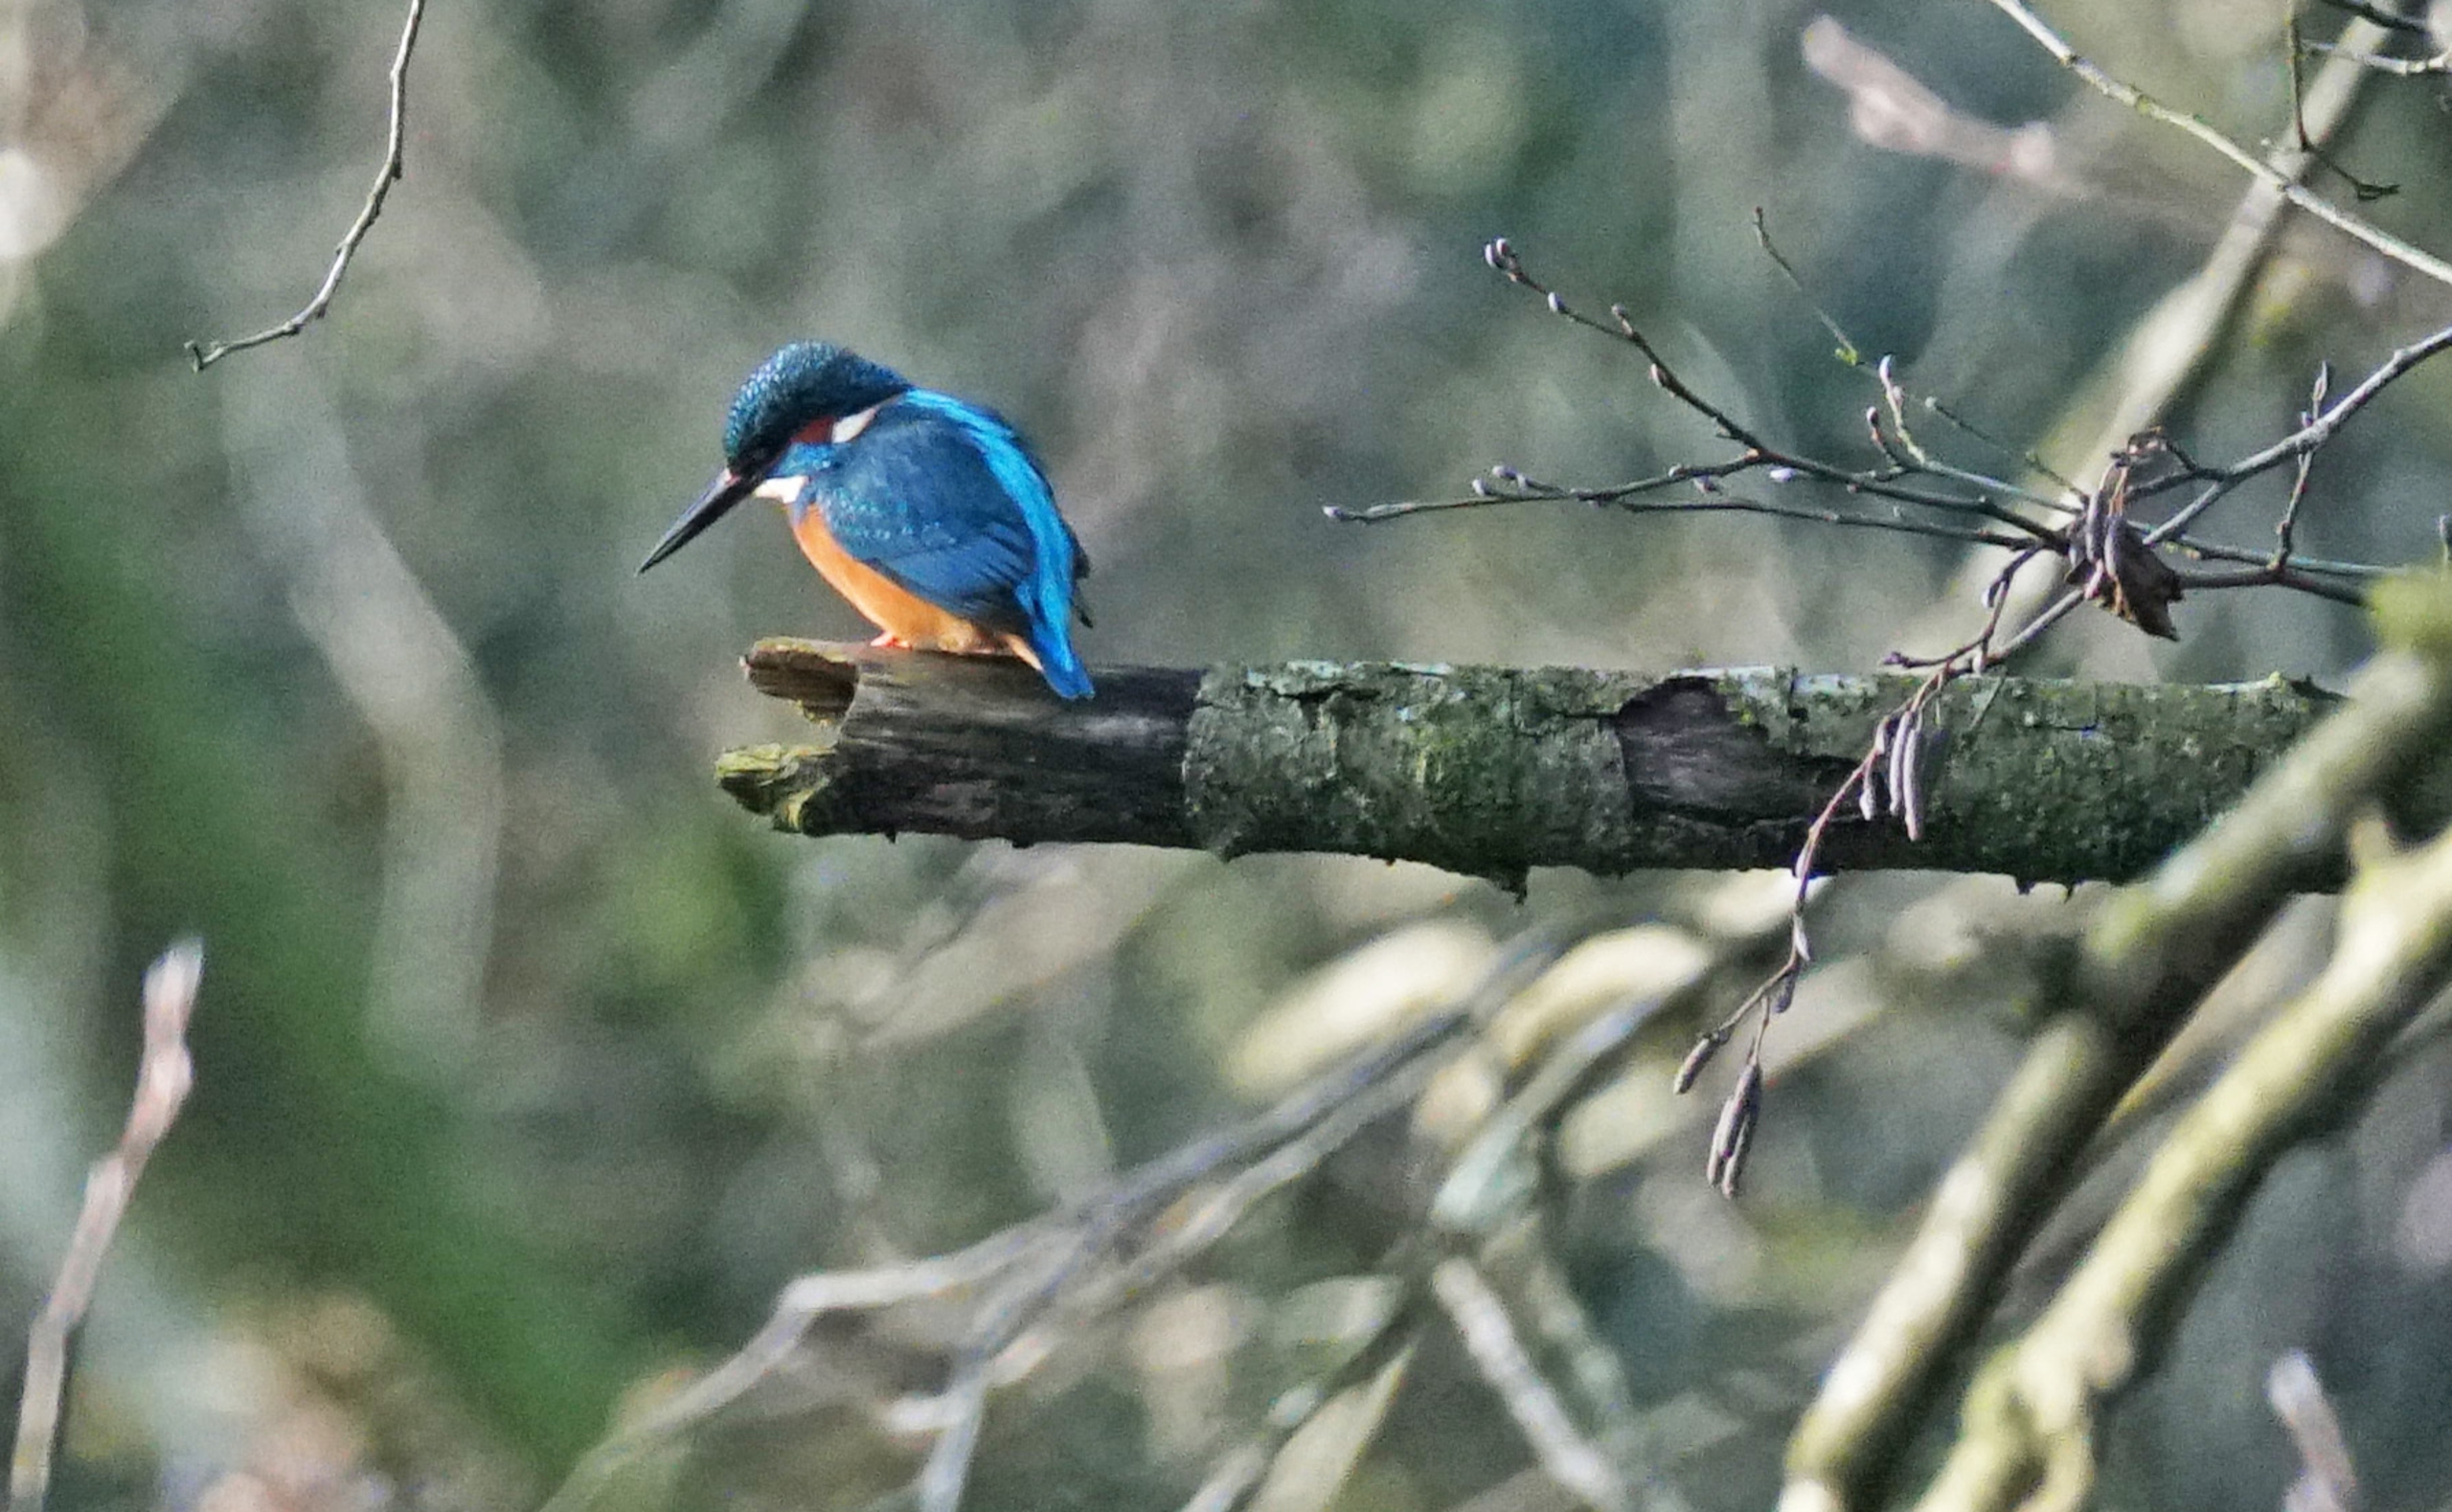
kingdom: Animalia
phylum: Chordata
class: Aves
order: Coraciiformes
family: Alcedinidae
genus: Alcedo
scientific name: Alcedo atthis
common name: Isfugl
